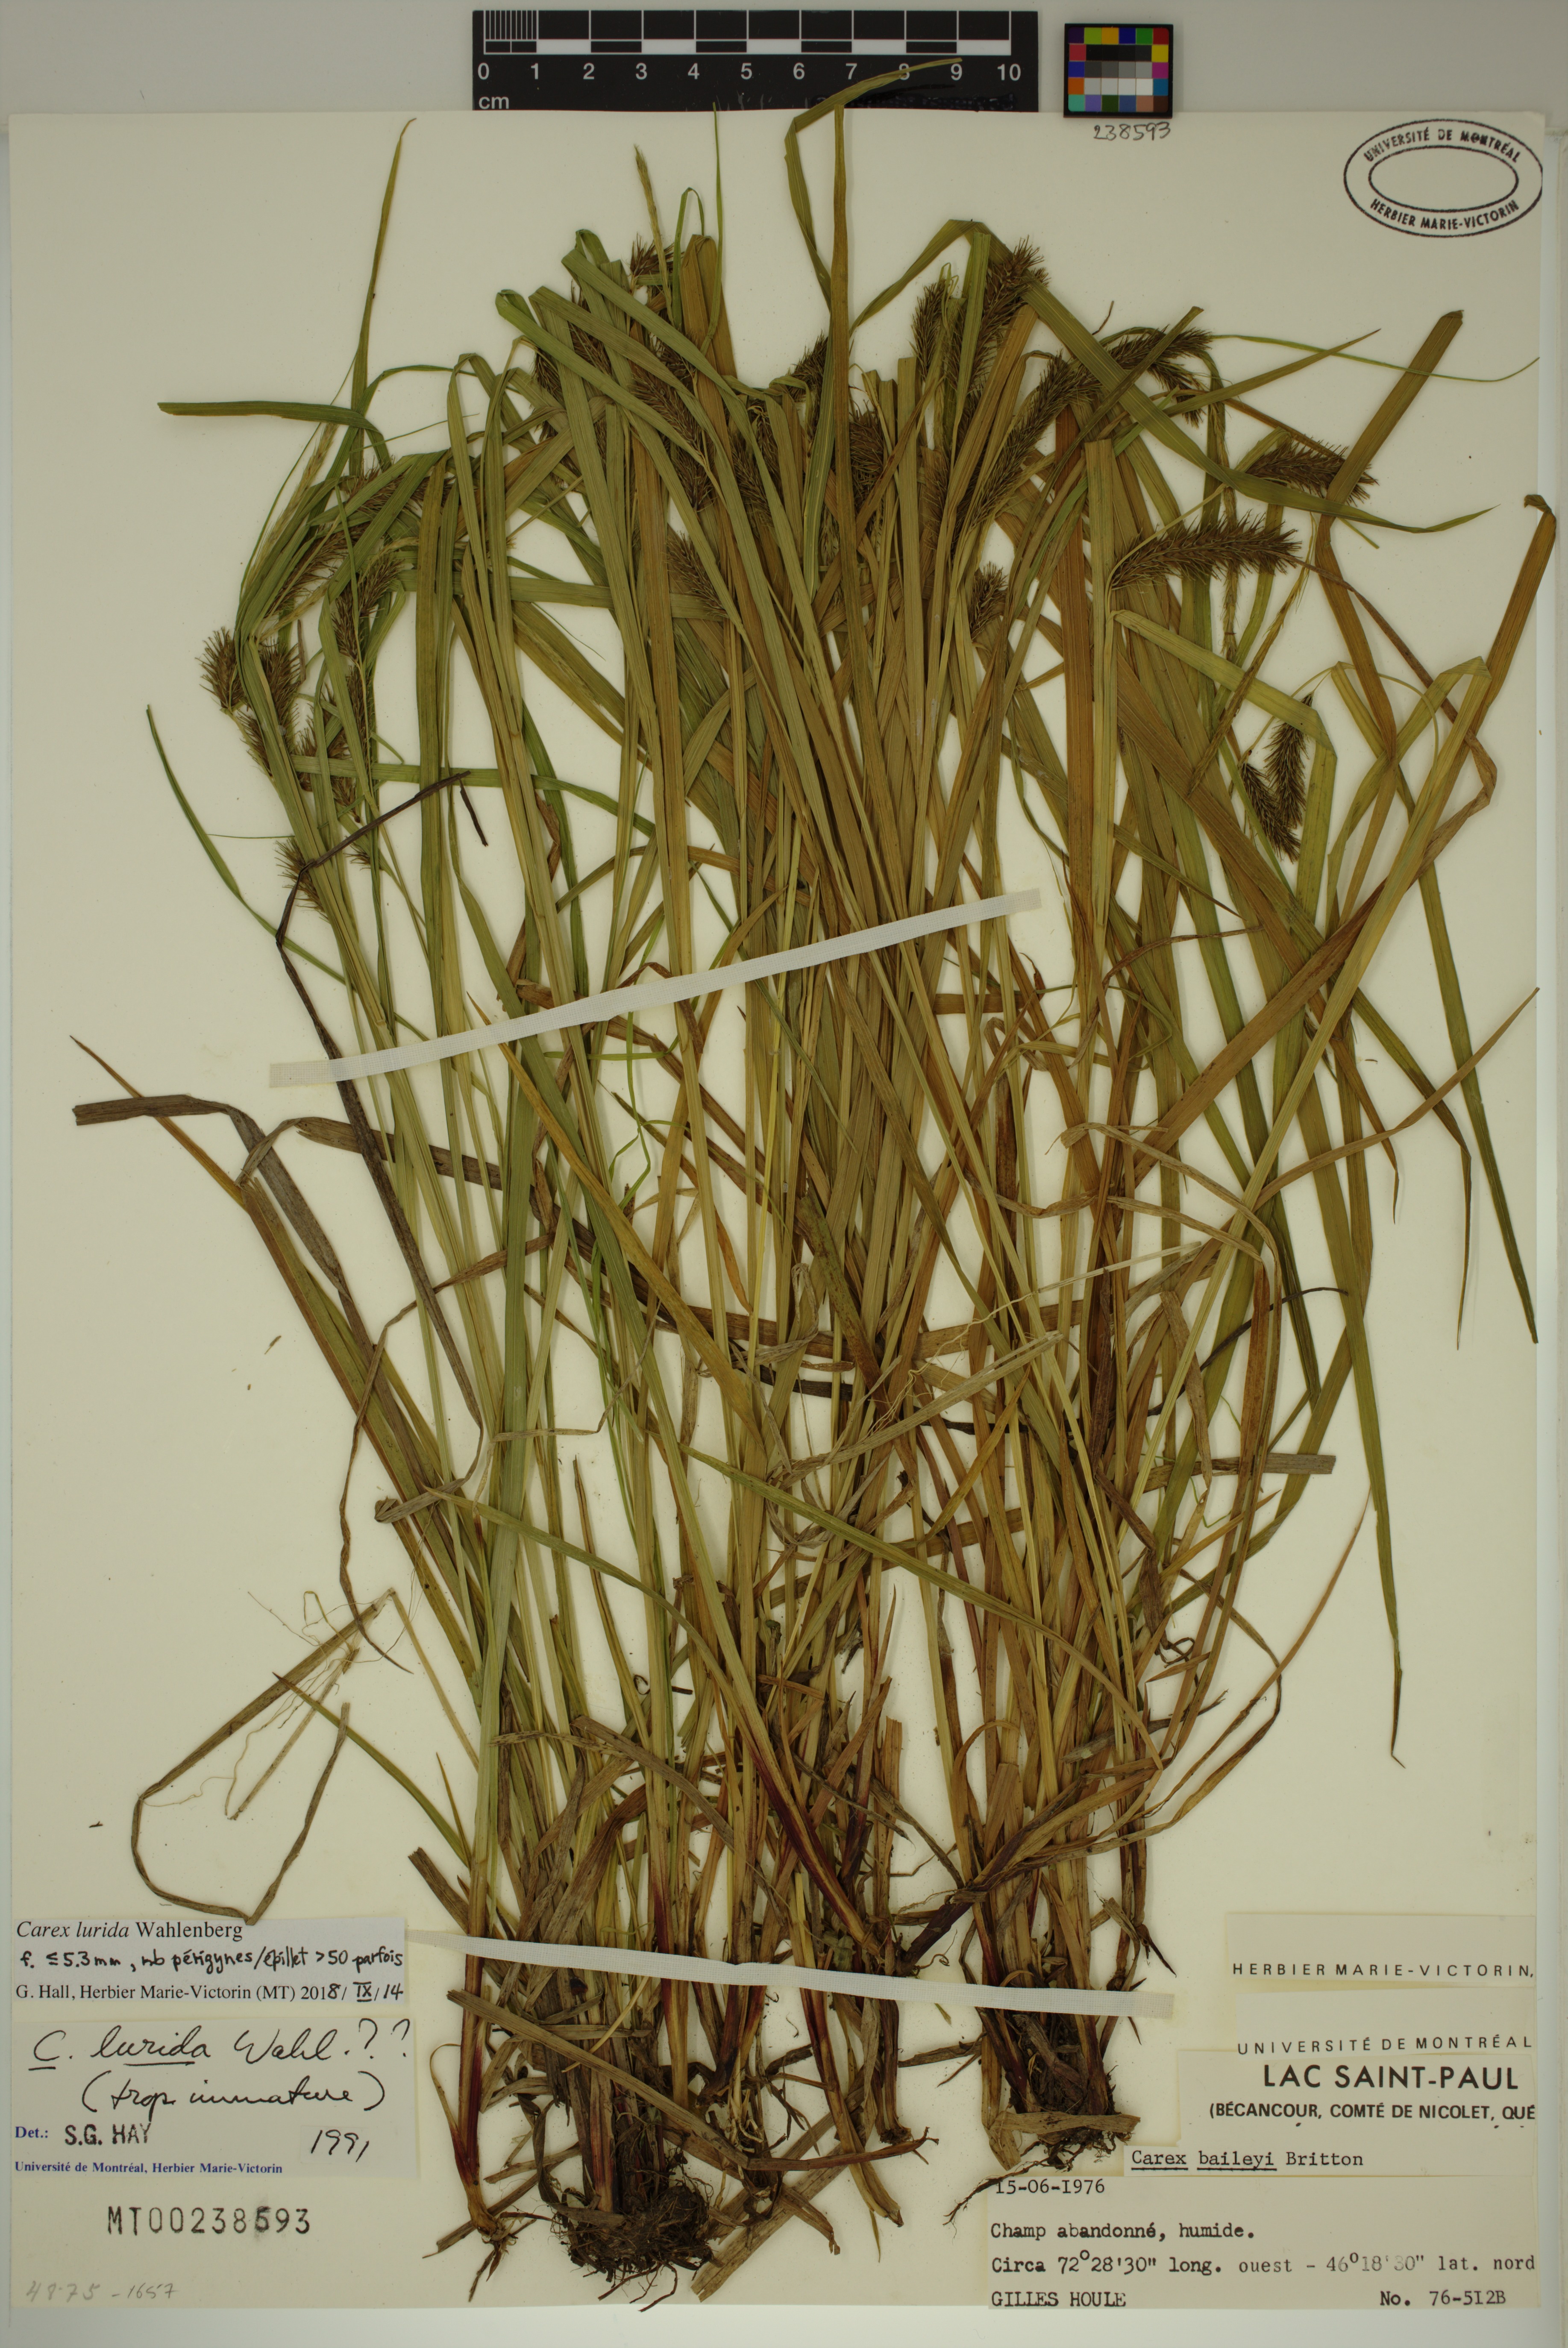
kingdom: Plantae
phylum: Tracheophyta
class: Liliopsida
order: Poales
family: Cyperaceae
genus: Carex
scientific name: Carex lurida
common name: Sallow sedge
